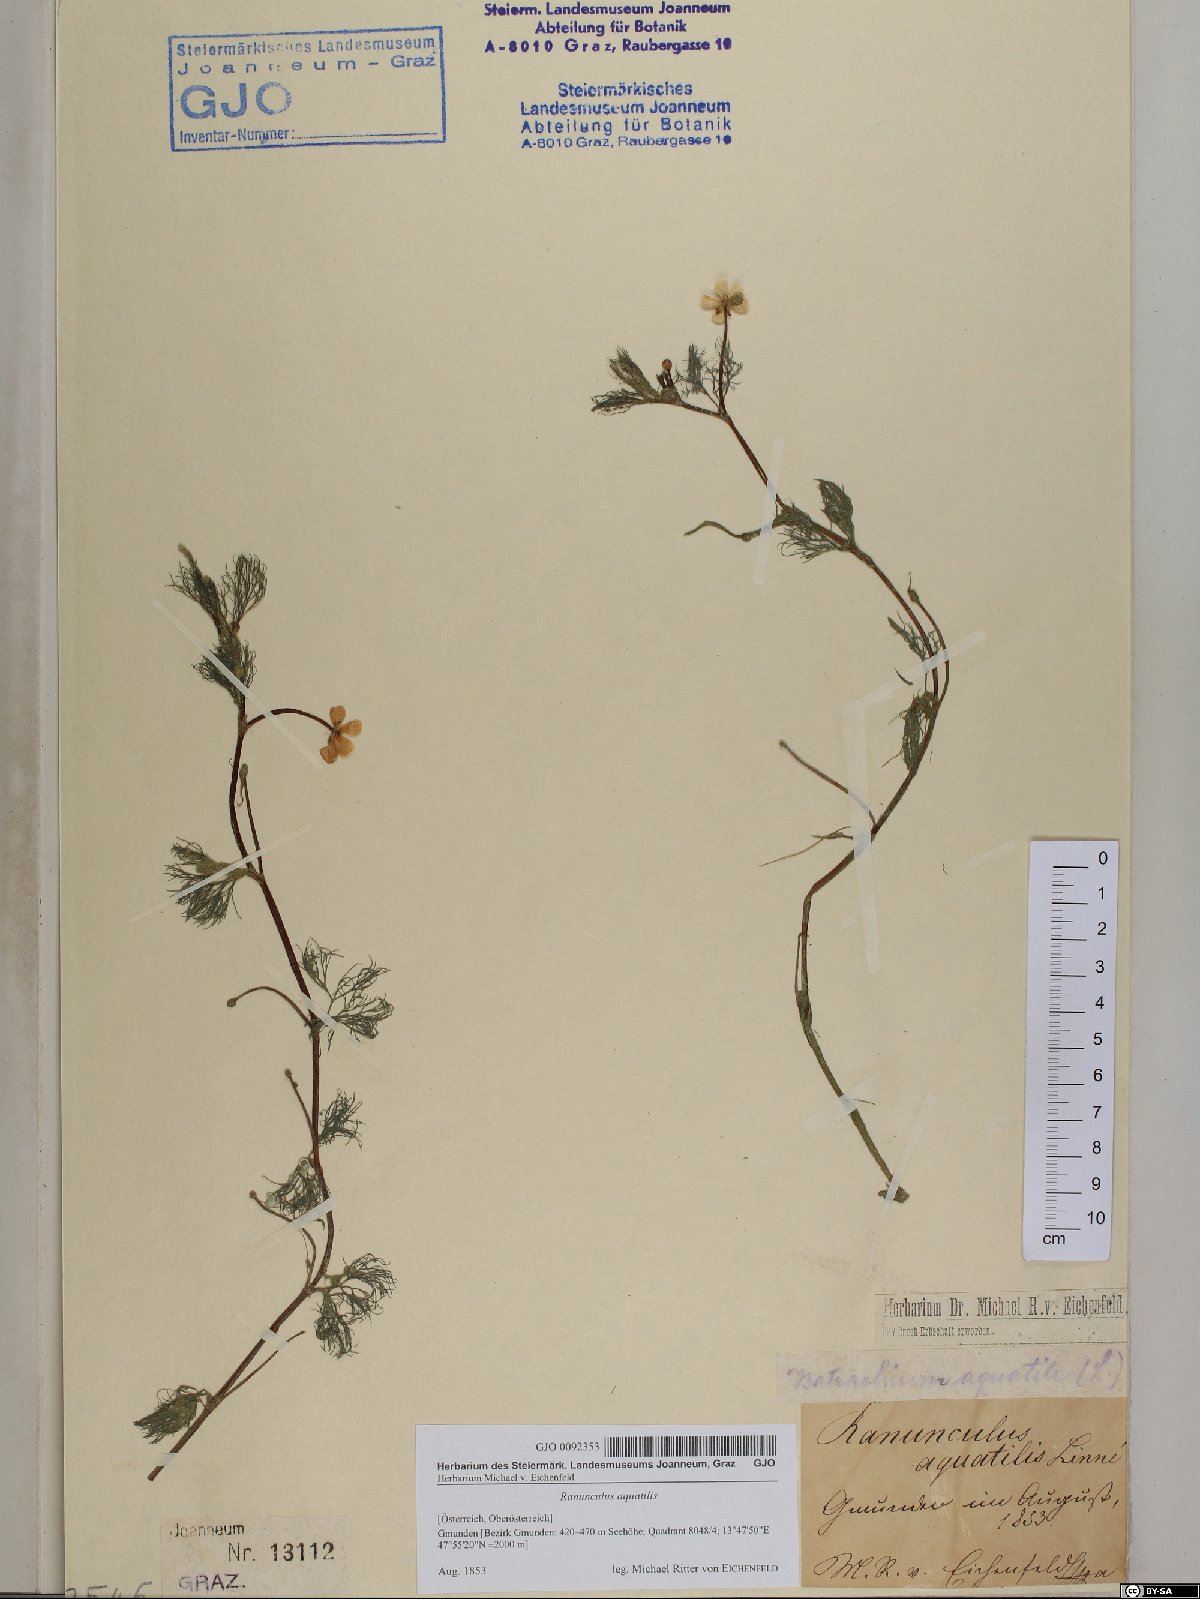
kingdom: Plantae
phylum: Tracheophyta
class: Magnoliopsida
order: Ranunculales
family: Ranunculaceae
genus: Ranunculus
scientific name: Ranunculus aquatilis
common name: Common water-crowfoot
